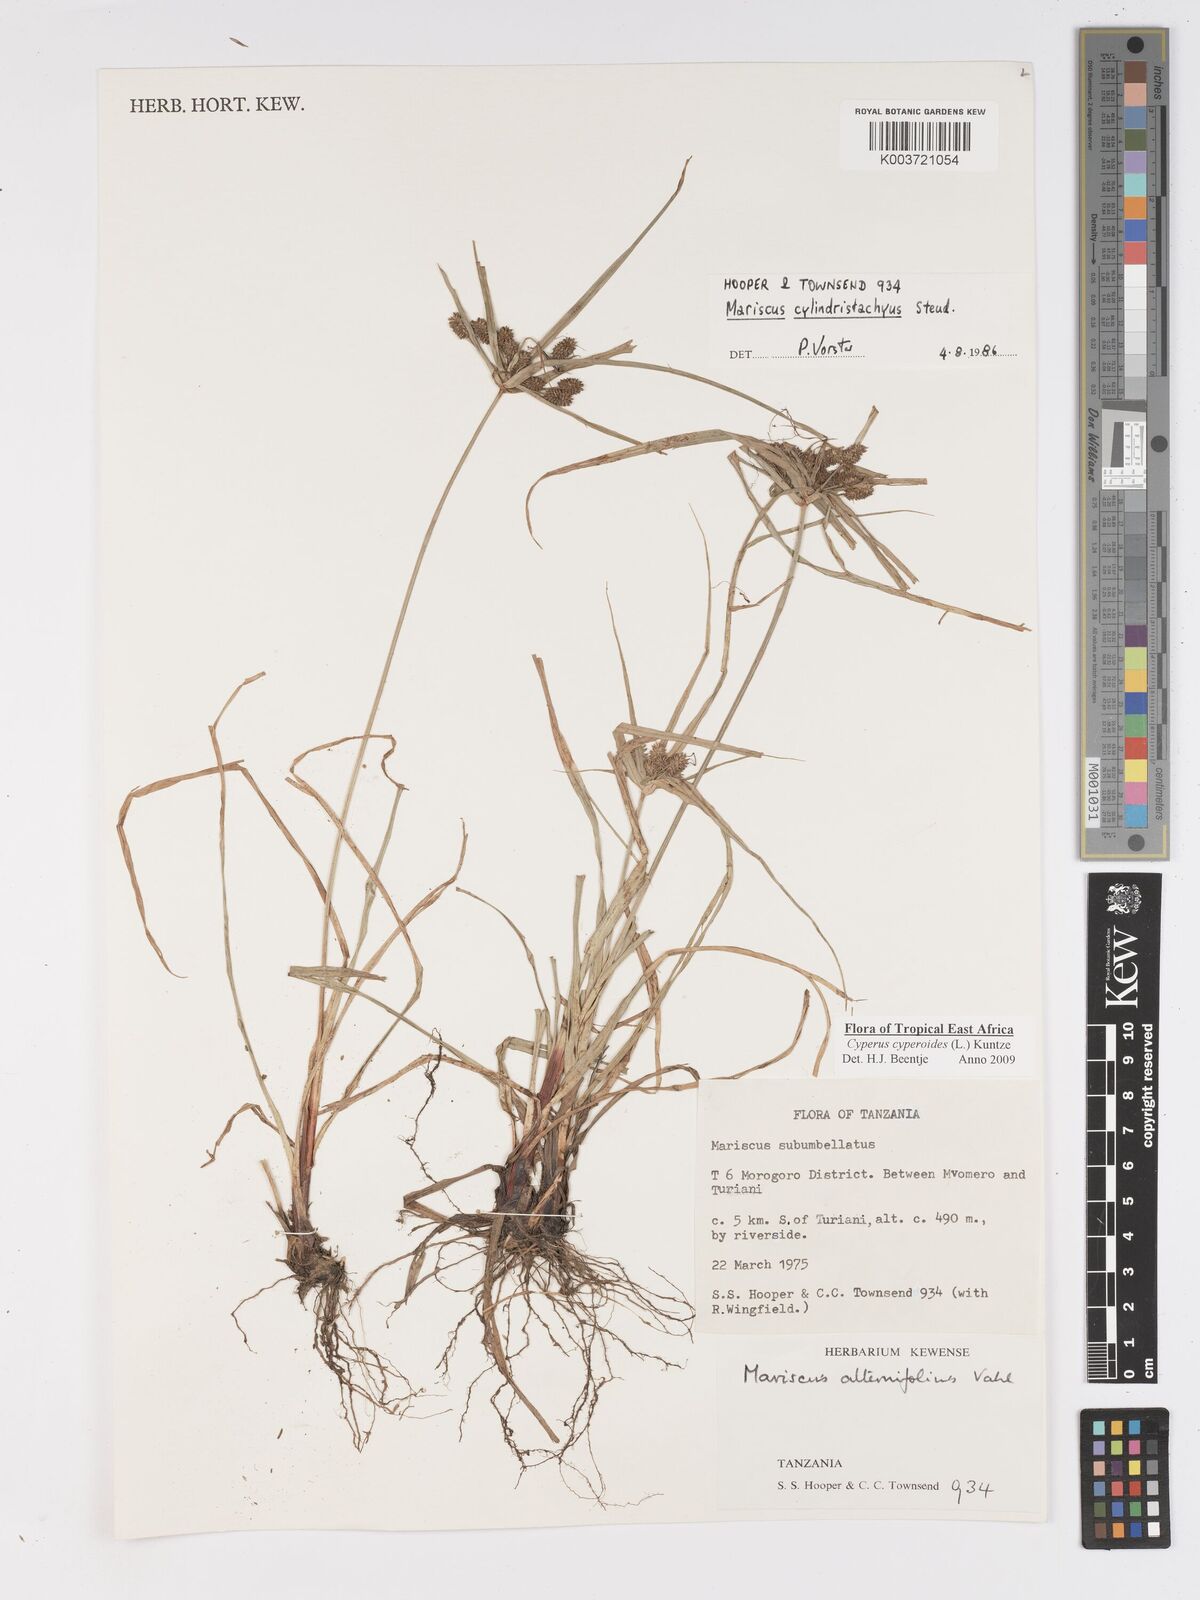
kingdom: Plantae
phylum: Tracheophyta
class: Liliopsida
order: Poales
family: Cyperaceae
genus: Cyperus
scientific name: Cyperus cyperoides
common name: Pacific island flat sedge
